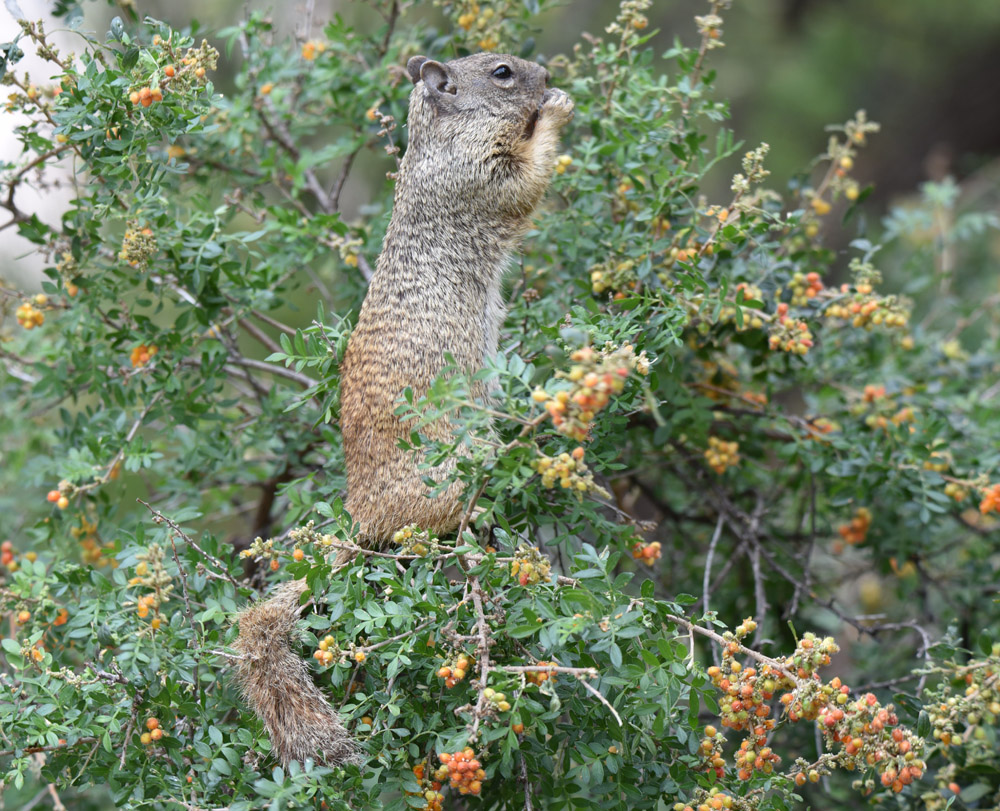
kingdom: Animalia
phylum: Chordata
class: Mammalia
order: Rodentia
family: Sciuridae
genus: Otospermophilus
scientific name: Otospermophilus variegatus
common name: Rock squirrel
